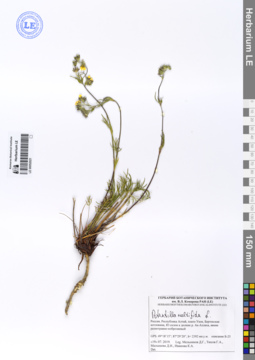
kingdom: Plantae
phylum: Tracheophyta
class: Magnoliopsida
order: Rosales
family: Rosaceae
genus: Potentilla
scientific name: Potentilla multifida
